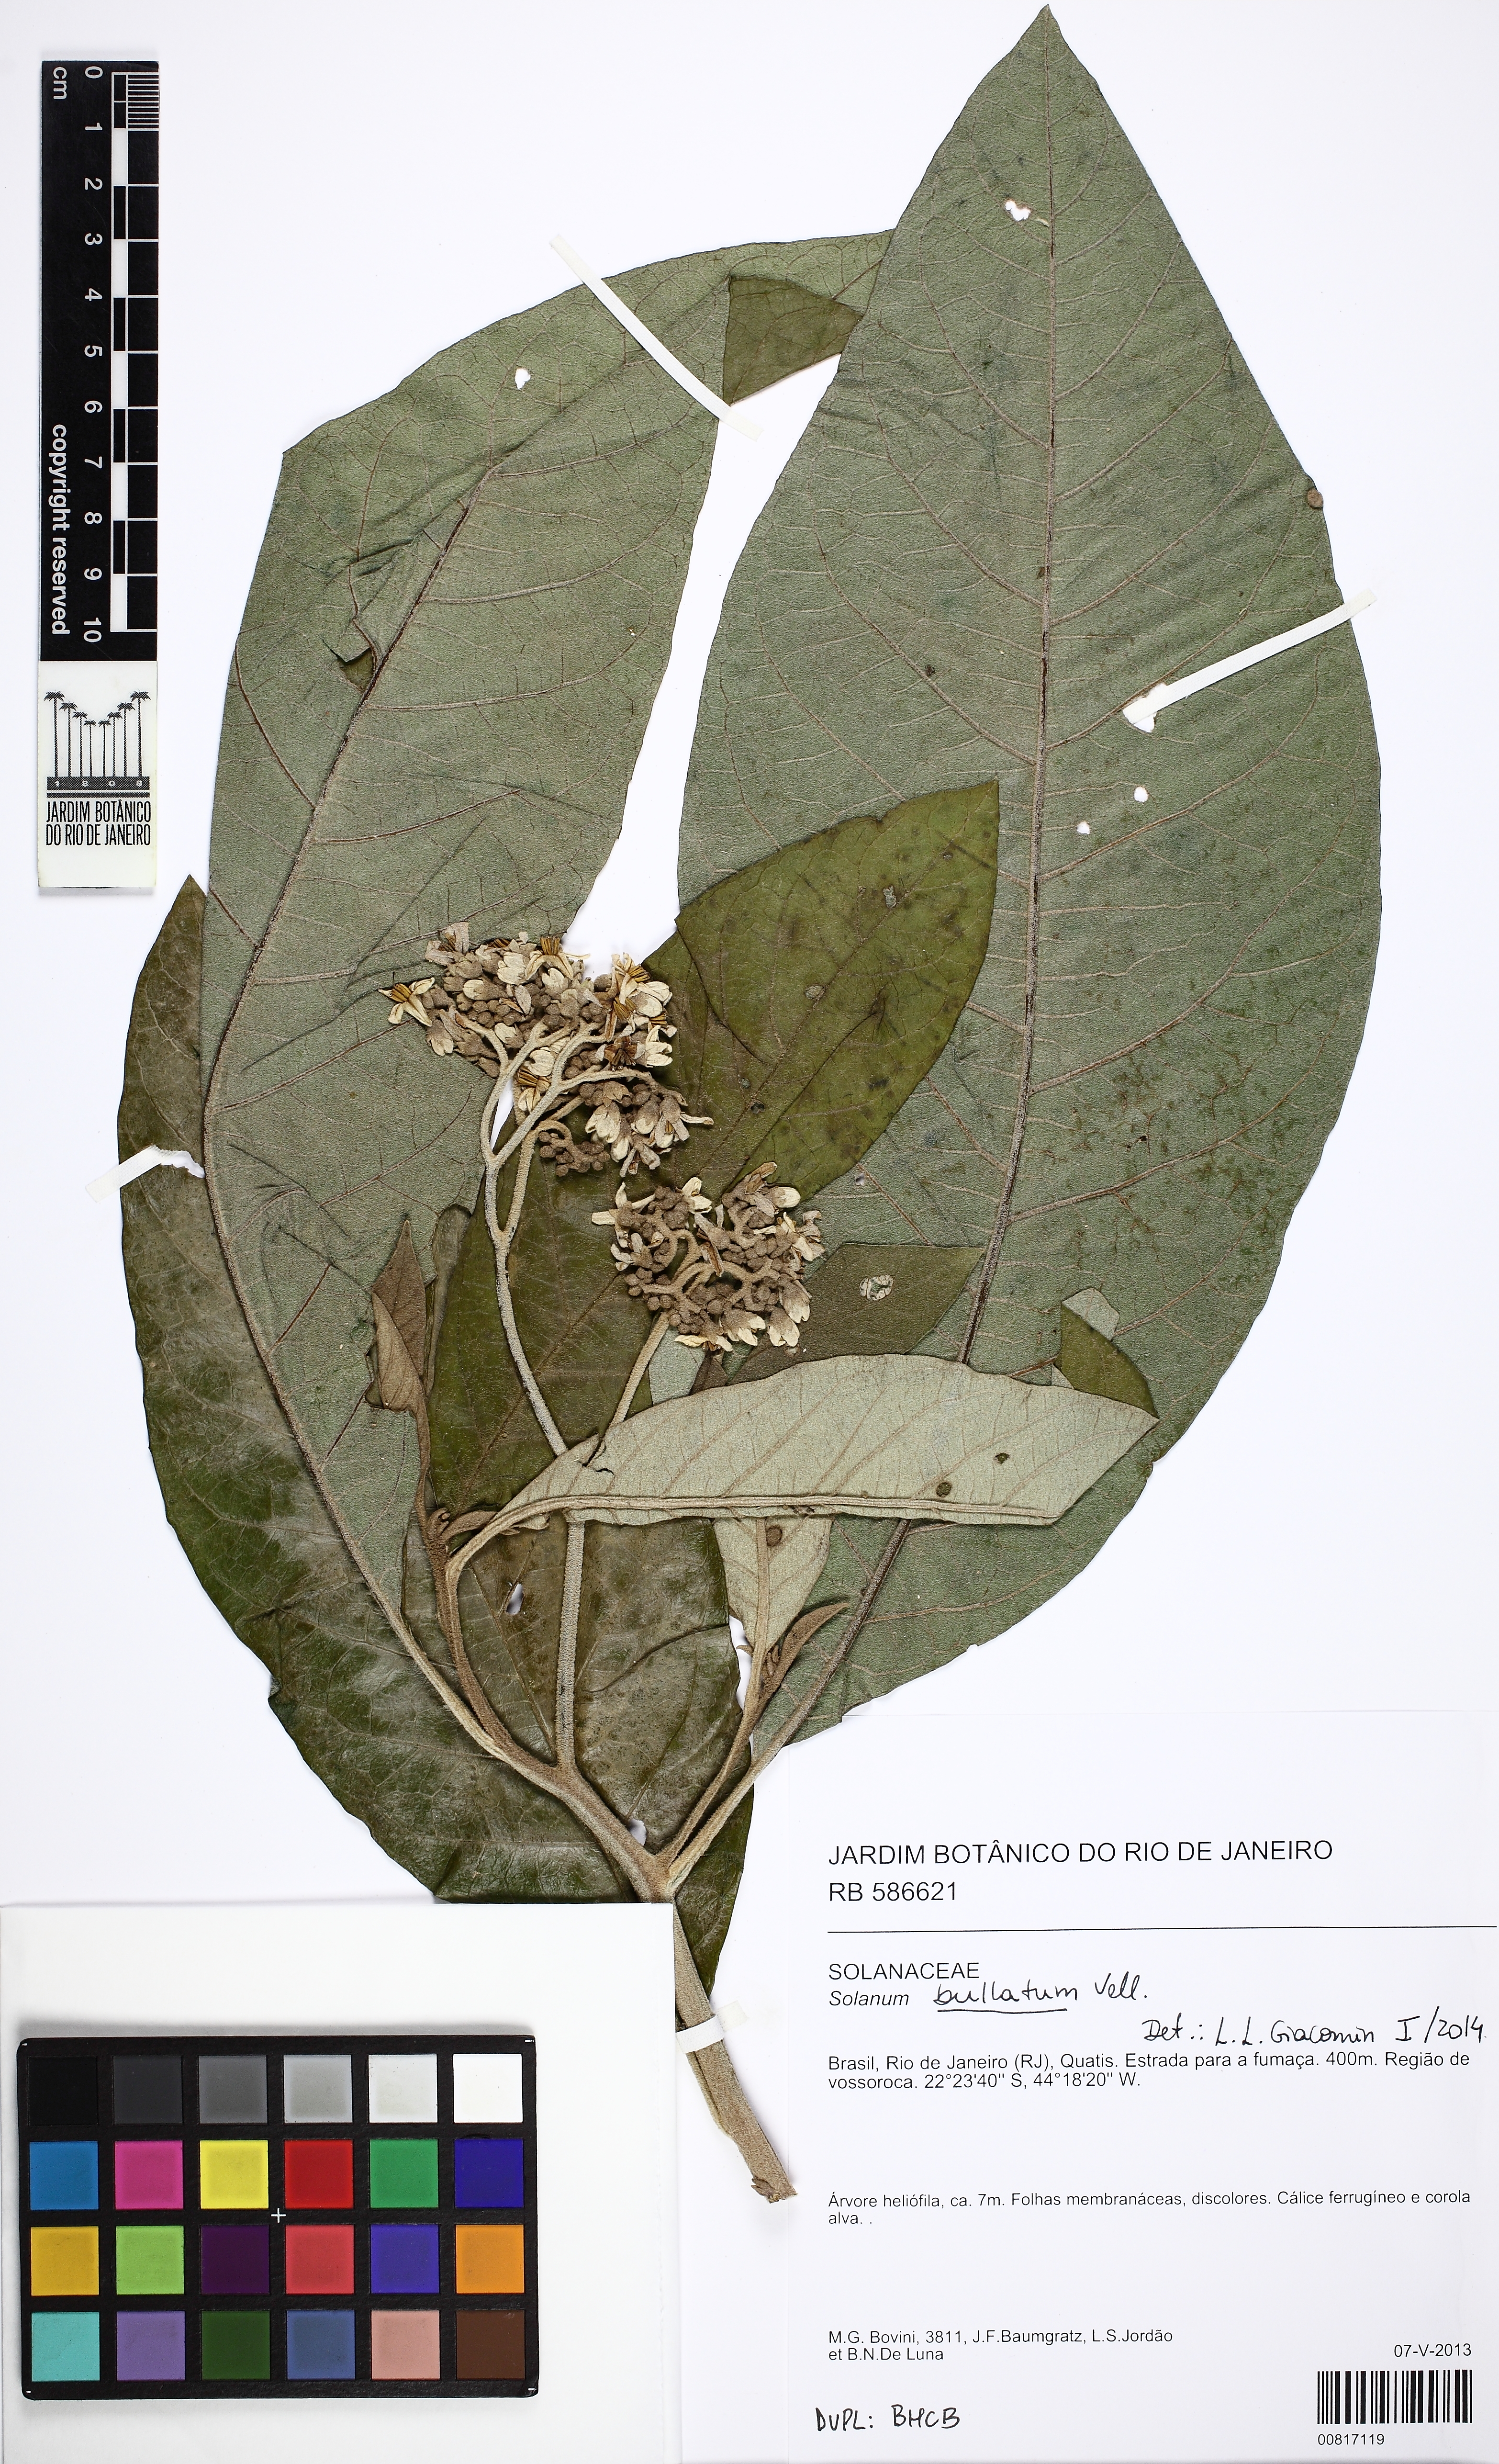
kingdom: Plantae
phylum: Tracheophyta
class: Magnoliopsida
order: Solanales
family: Solanaceae
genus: Solanum
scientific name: Solanum bullatum
